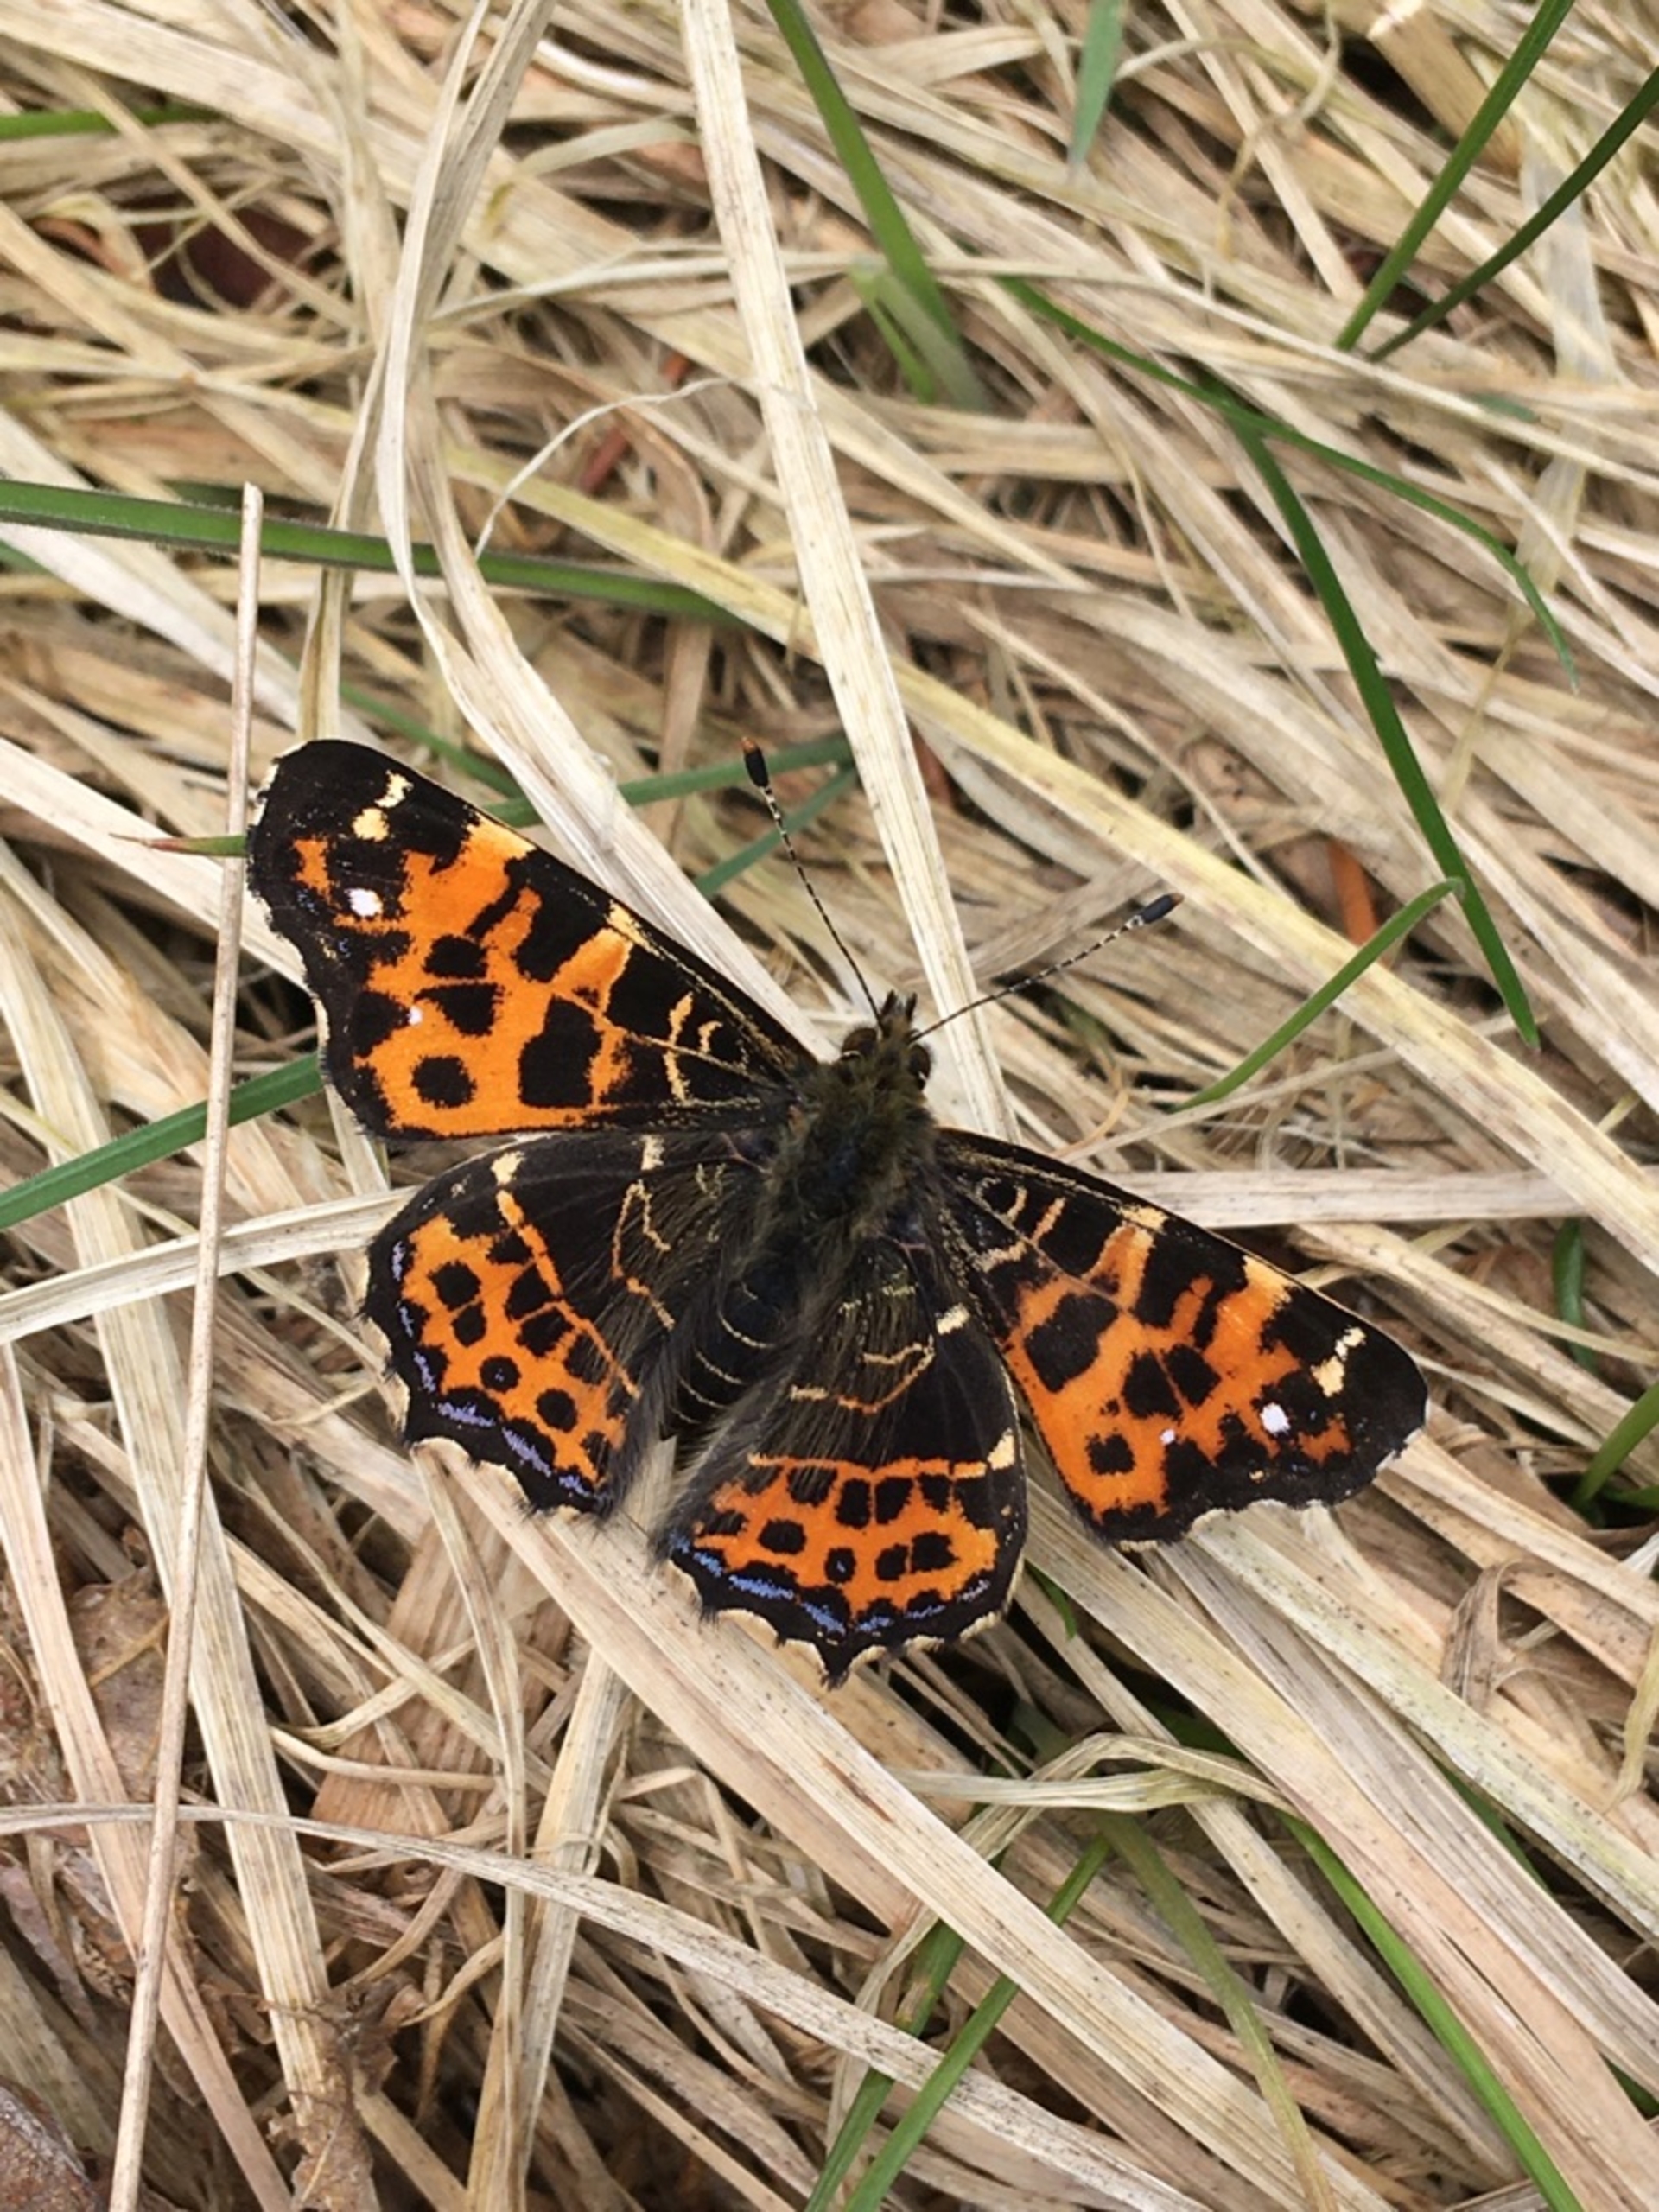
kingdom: Animalia
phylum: Arthropoda
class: Insecta
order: Lepidoptera
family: Nymphalidae
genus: Araschnia
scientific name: Araschnia levana
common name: Nældesommerfugl
